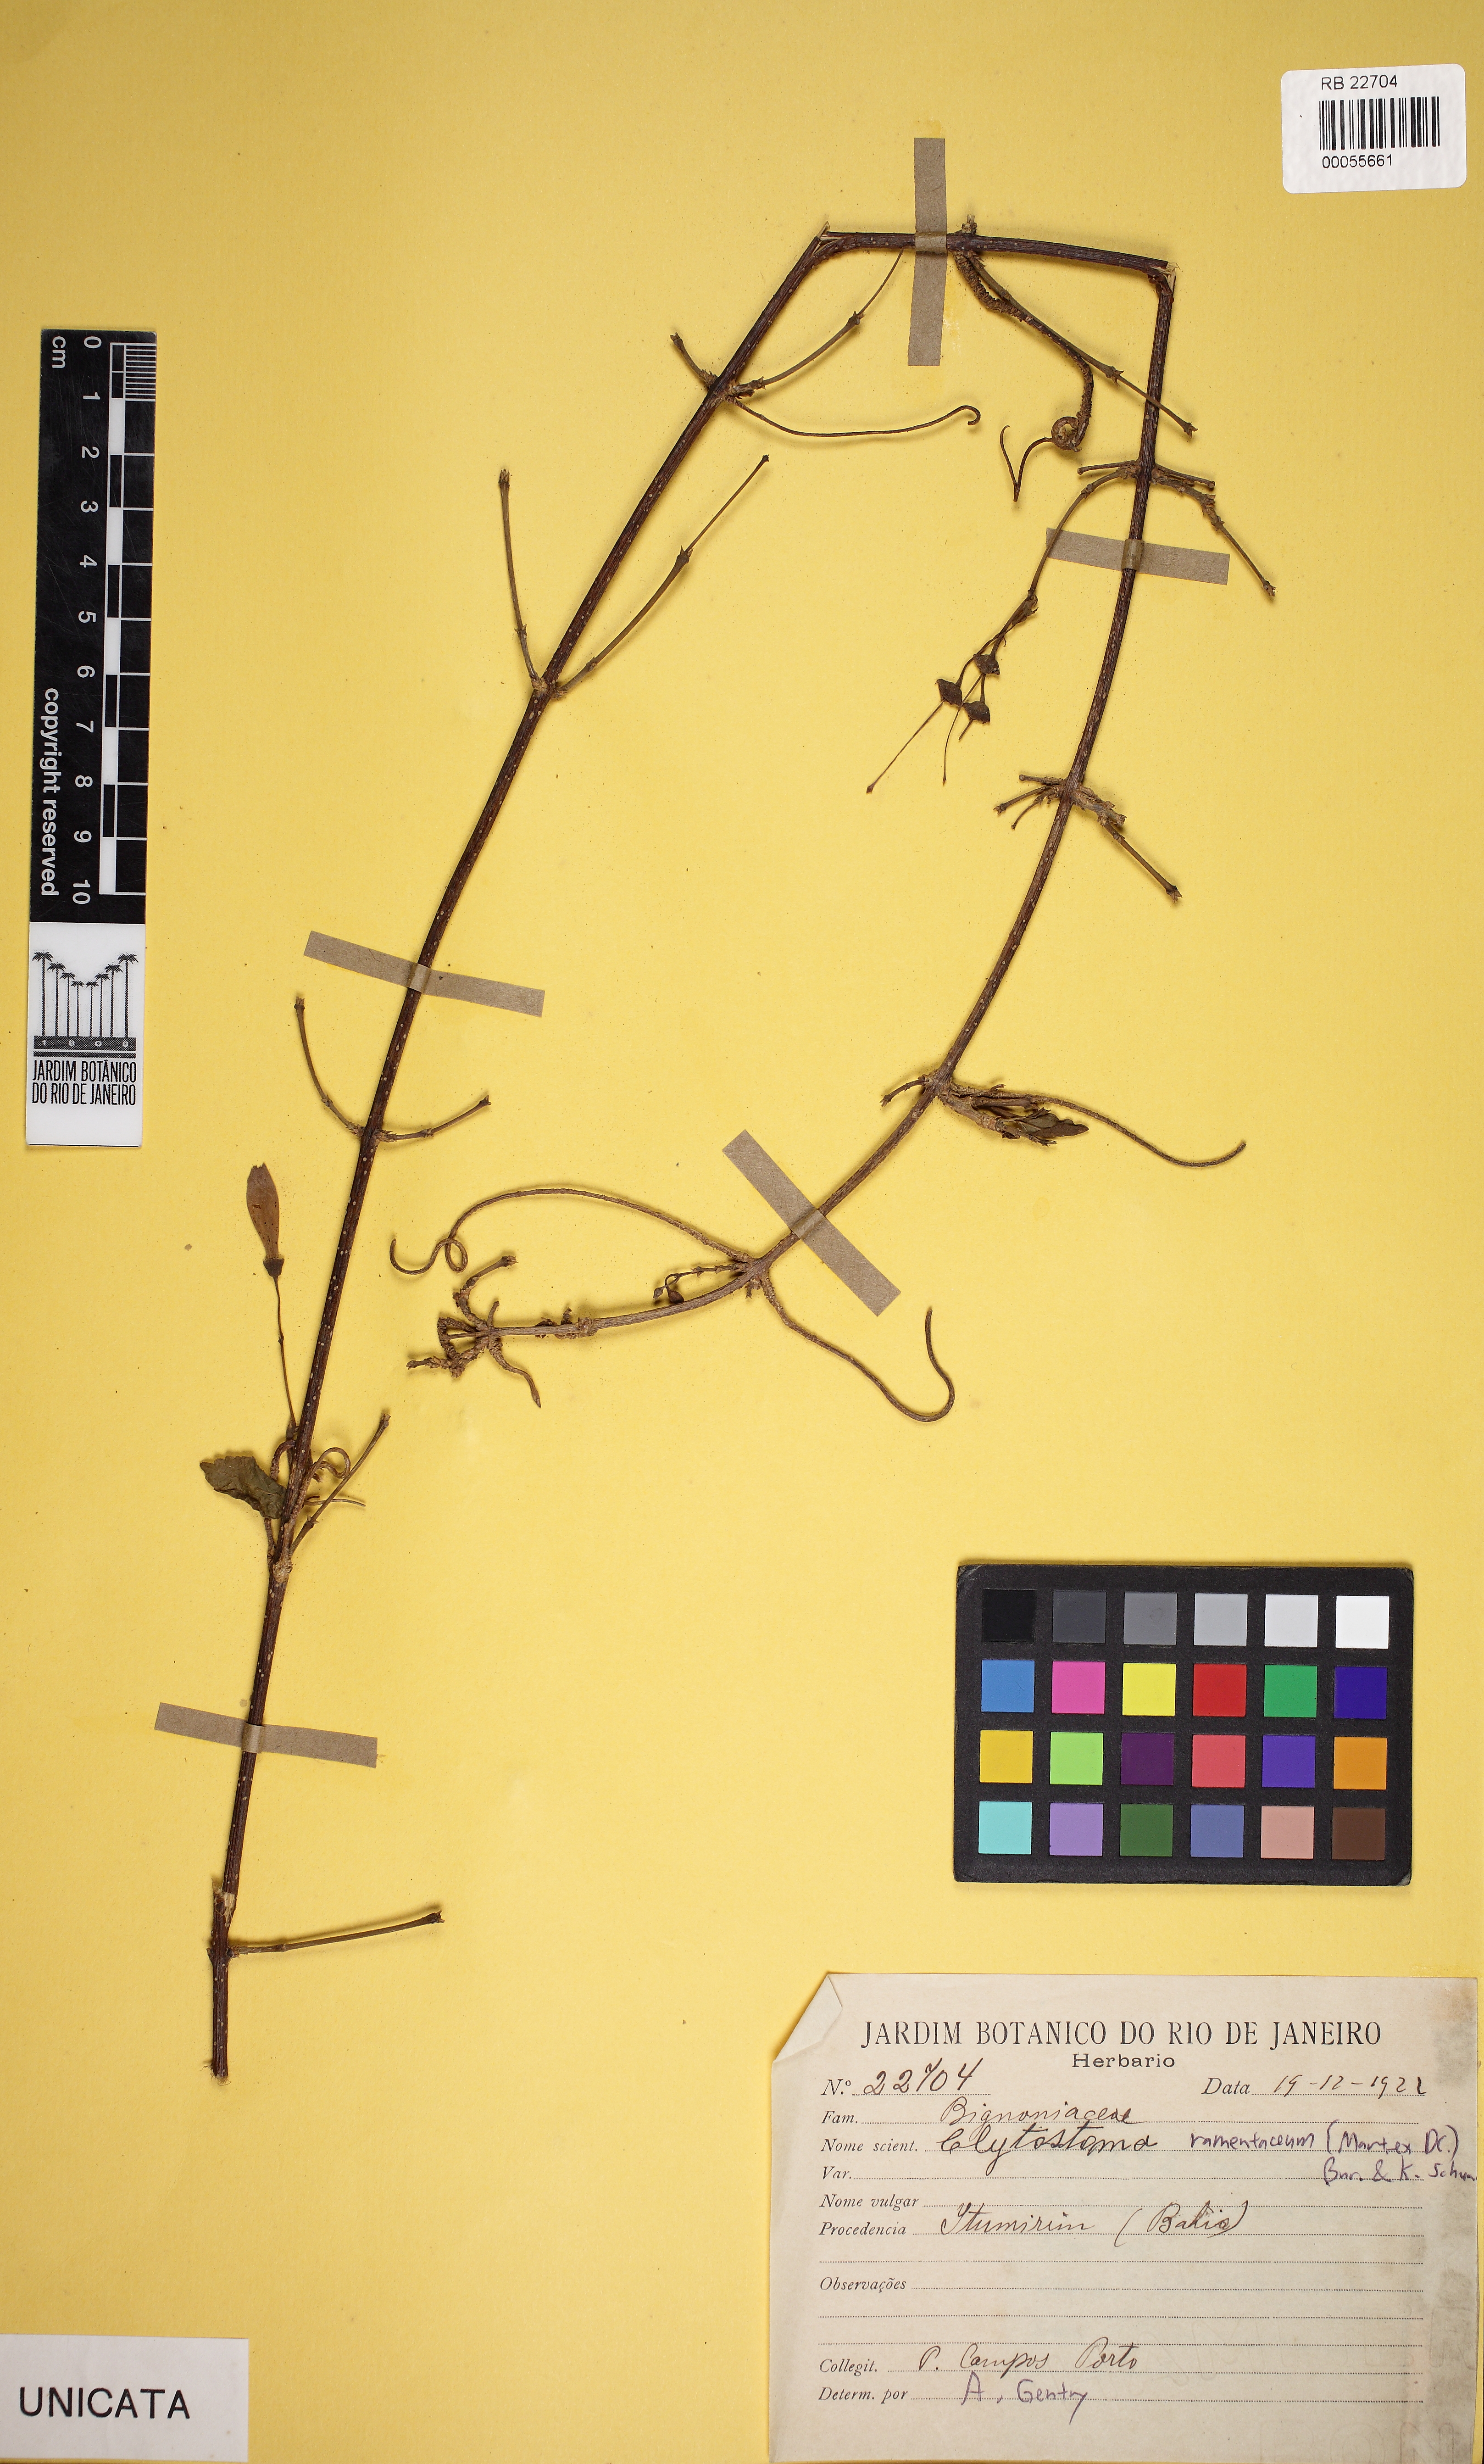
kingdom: Plantae
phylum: Tracheophyta
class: Magnoliopsida
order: Lamiales
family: Bignoniaceae
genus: Bignonia
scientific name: Bignonia ramentacea
